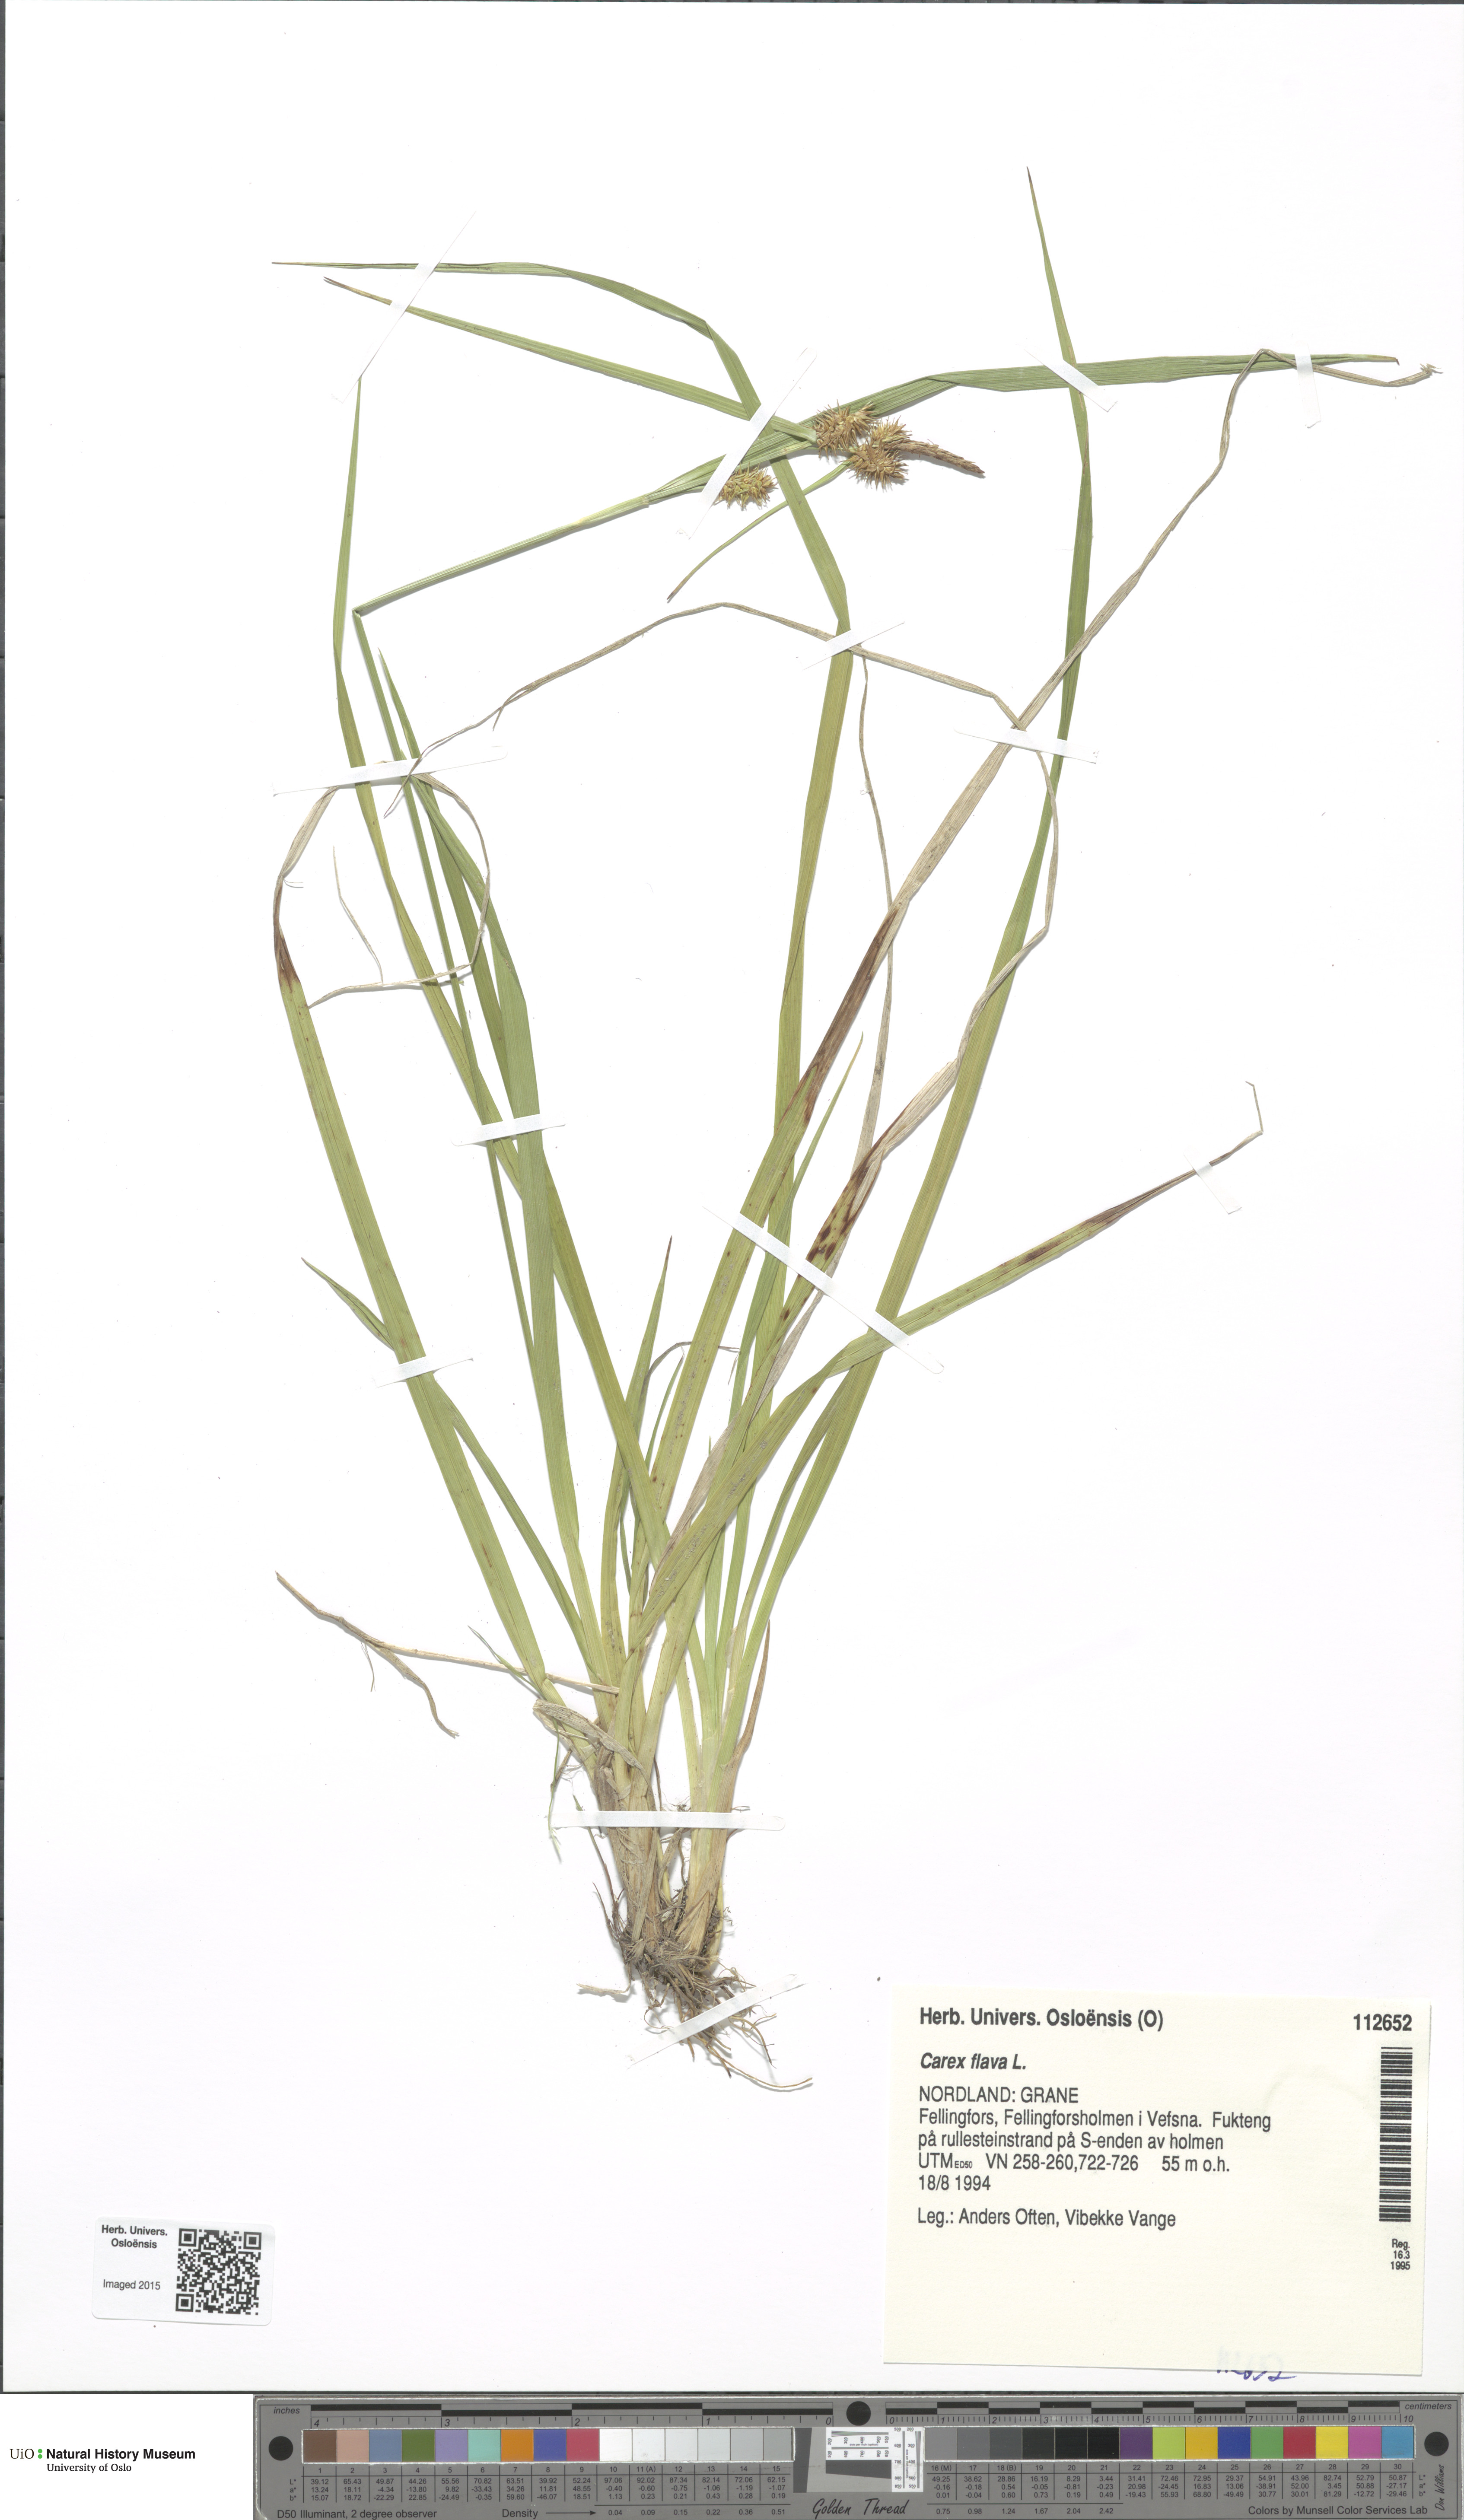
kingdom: Plantae
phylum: Tracheophyta
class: Liliopsida
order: Poales
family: Cyperaceae
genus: Carex
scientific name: Carex flava
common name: Large yellow-sedge
